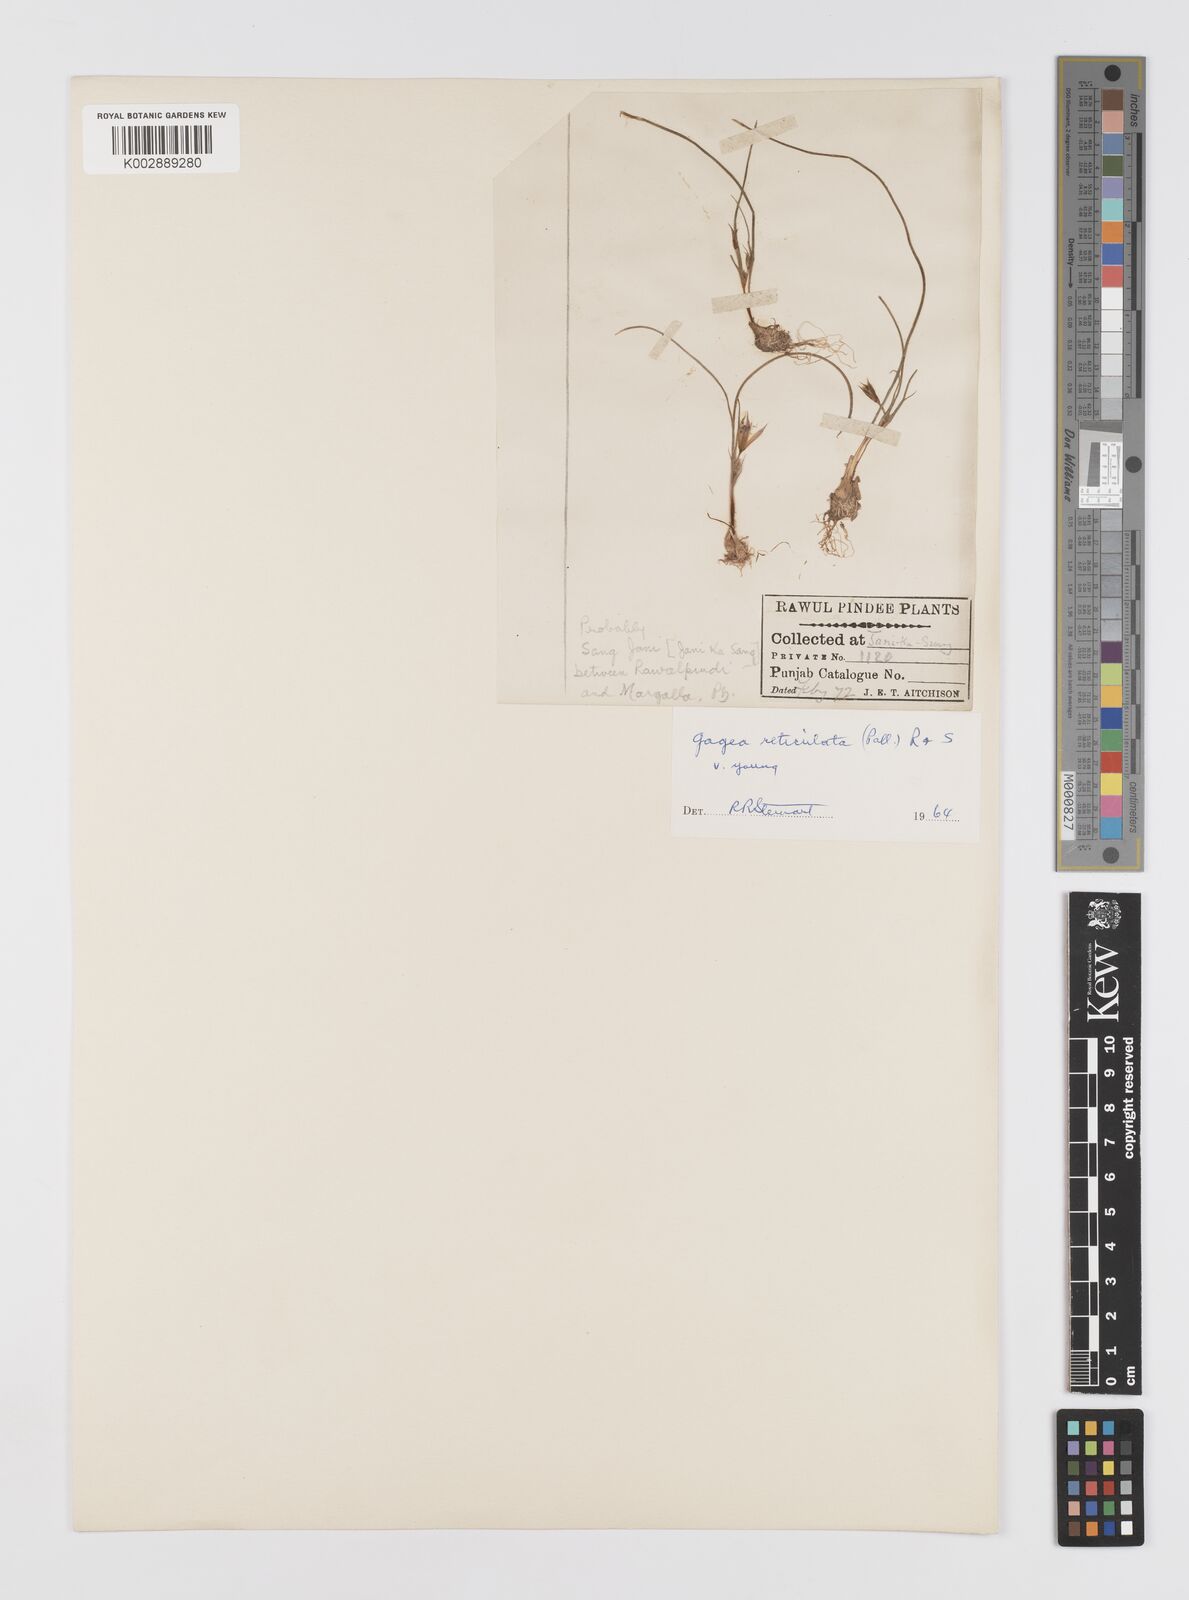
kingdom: Plantae
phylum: Tracheophyta
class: Liliopsida
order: Liliales
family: Liliaceae
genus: Gagea
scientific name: Gagea reticulata
